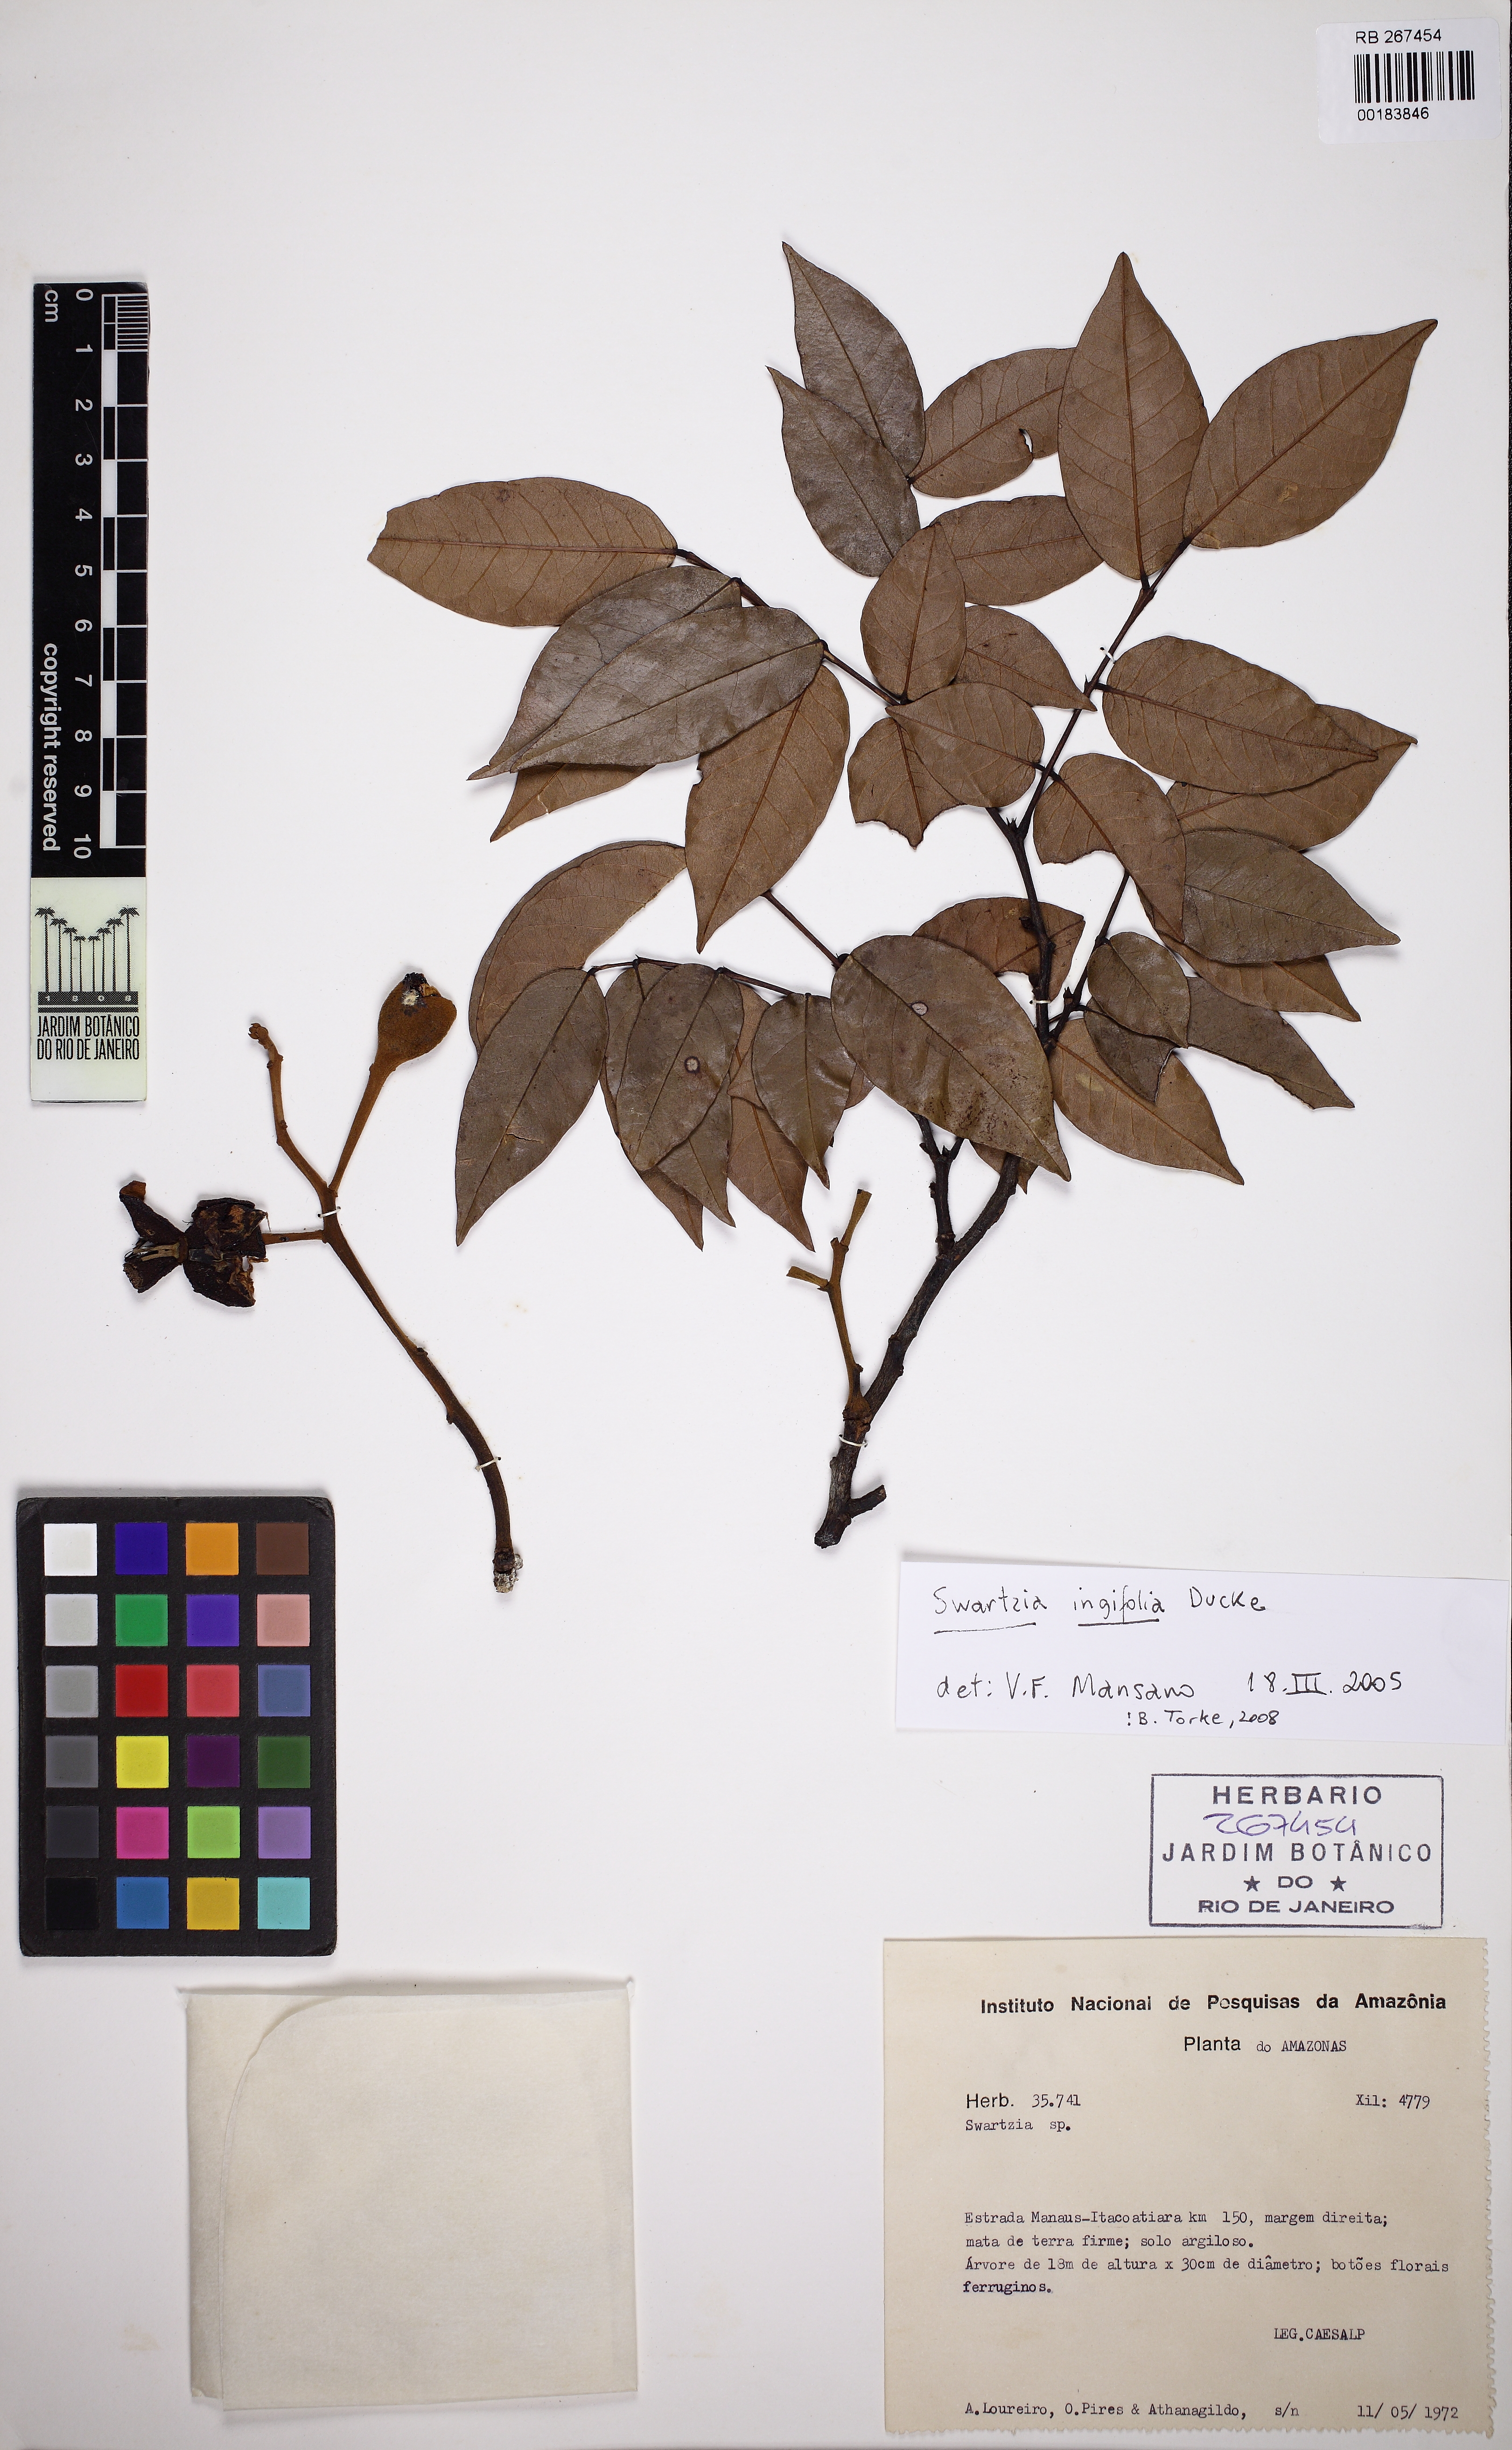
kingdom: Plantae
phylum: Tracheophyta
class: Magnoliopsida
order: Fabales
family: Fabaceae
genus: Swartzia
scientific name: Swartzia ingifolia
